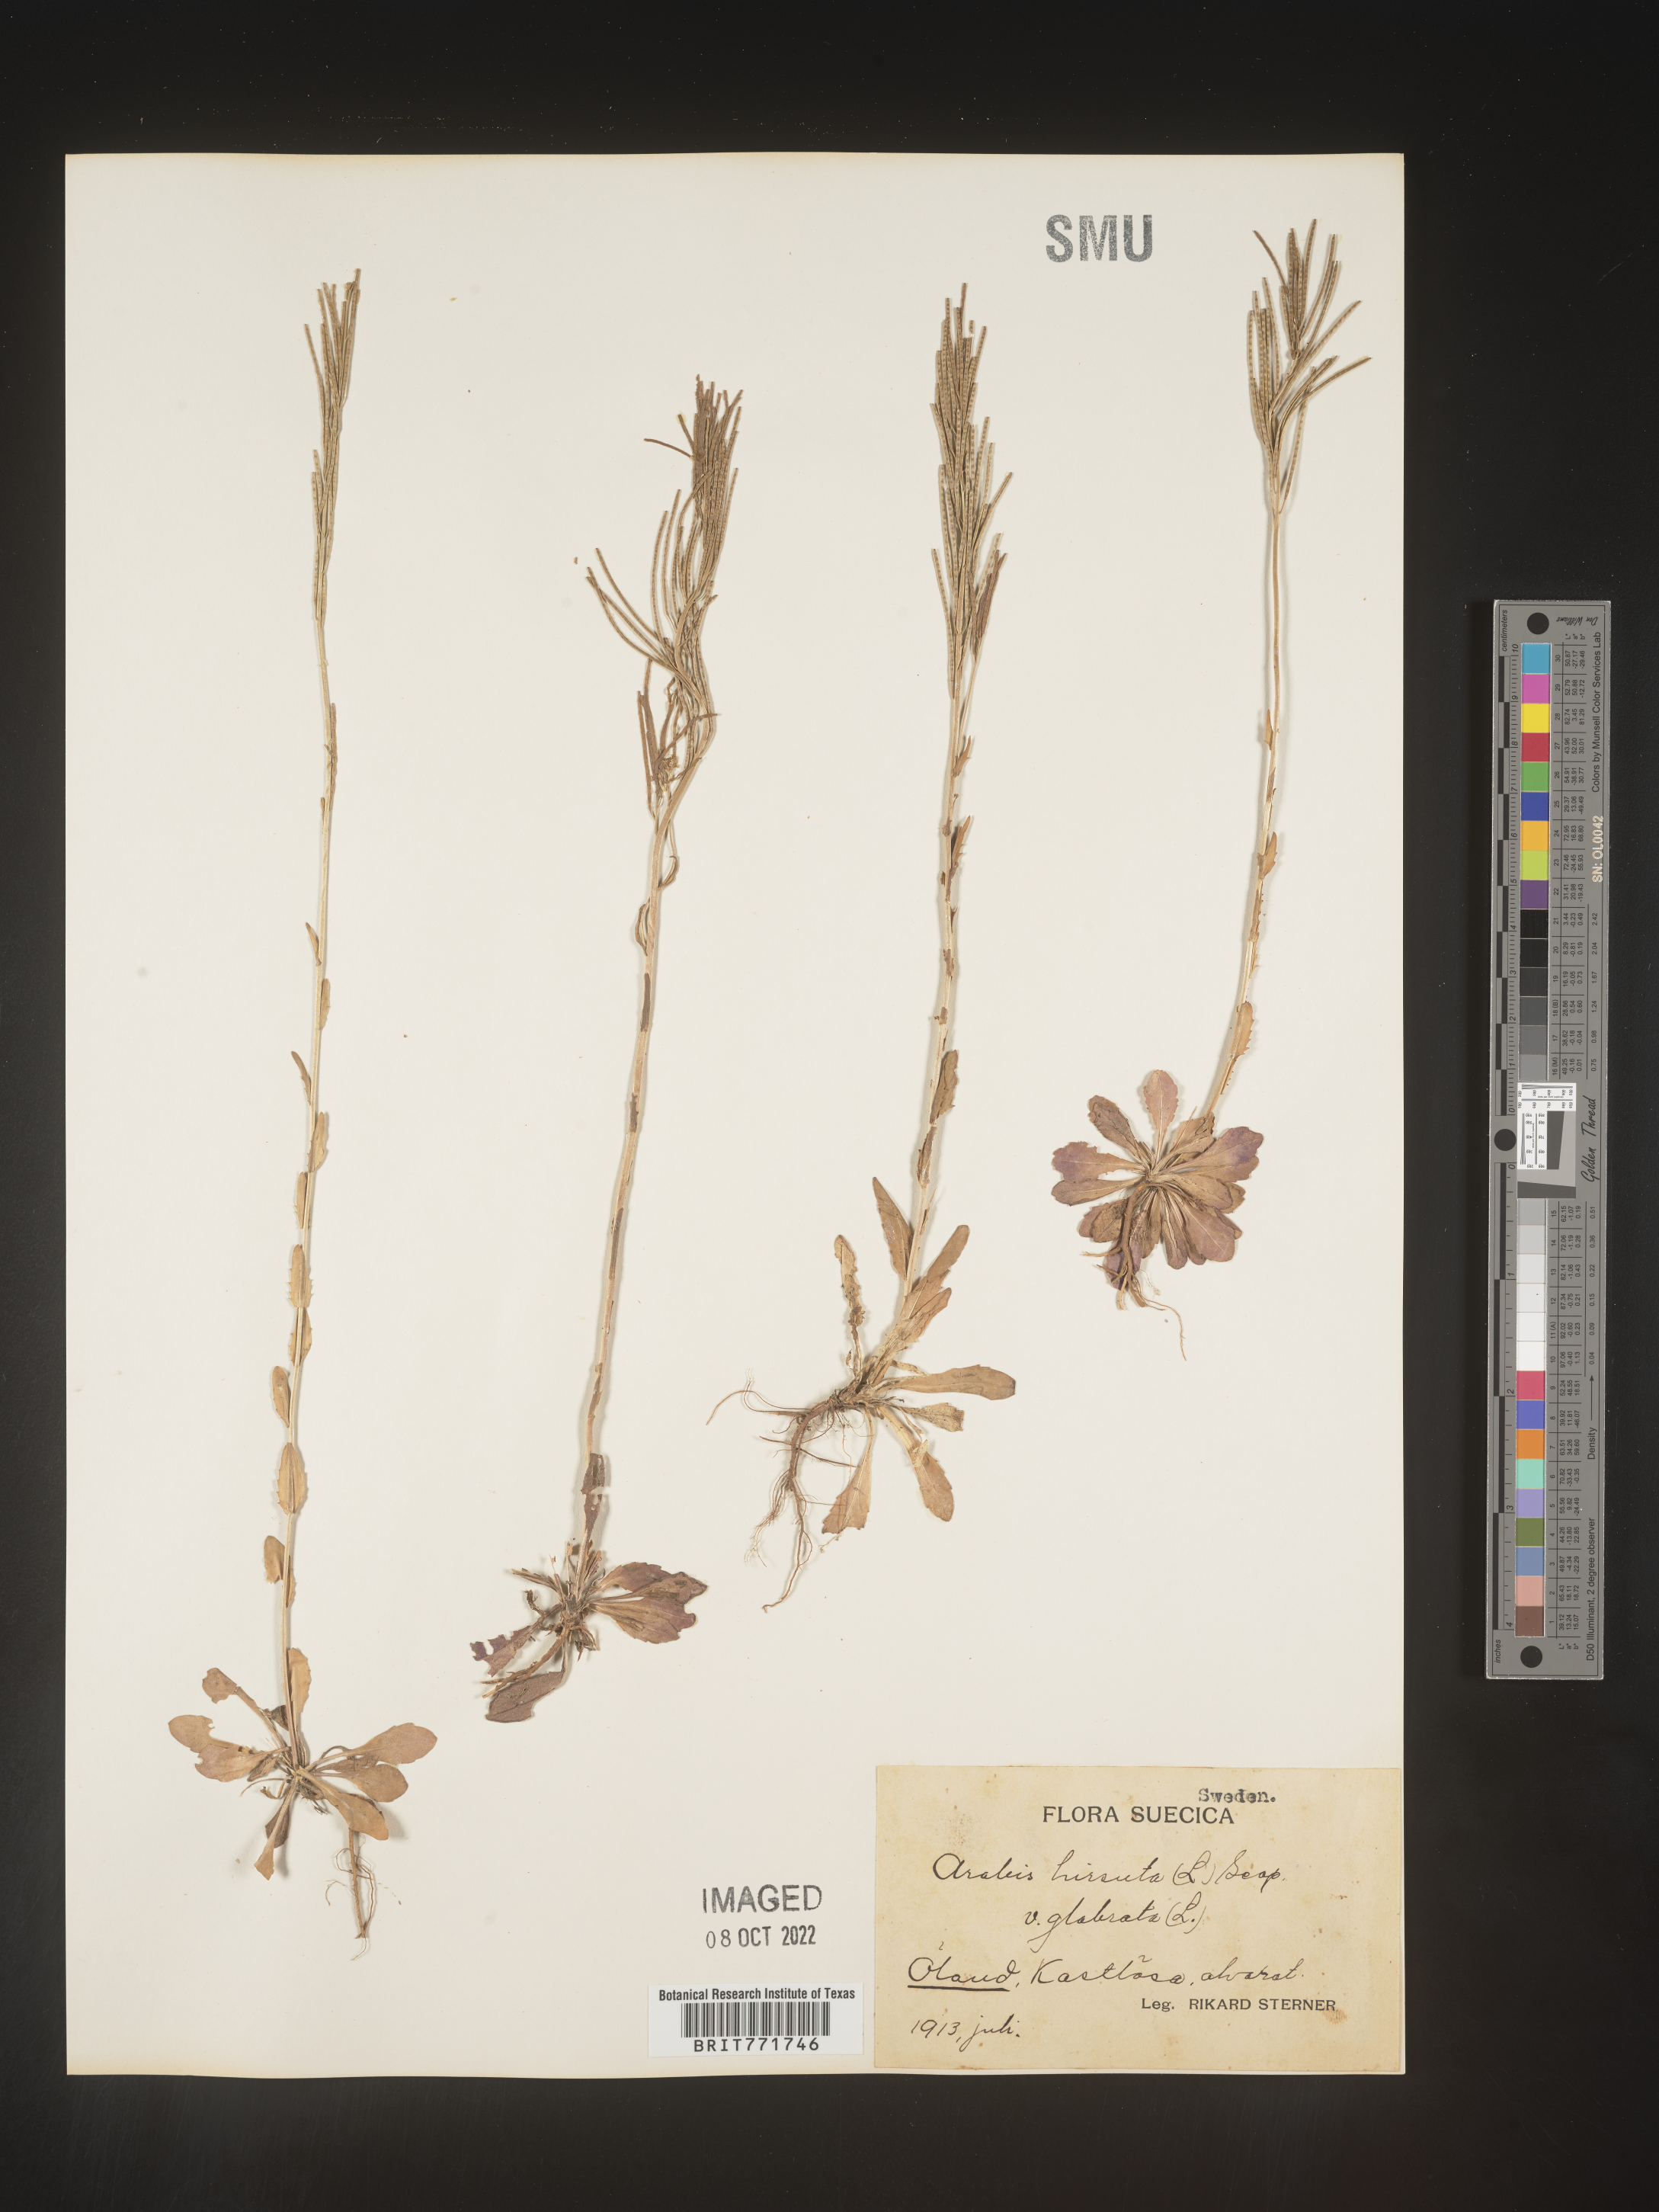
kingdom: Plantae
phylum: Tracheophyta
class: Magnoliopsida
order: Brassicales
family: Brassicaceae
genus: Arabis
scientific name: Arabis
